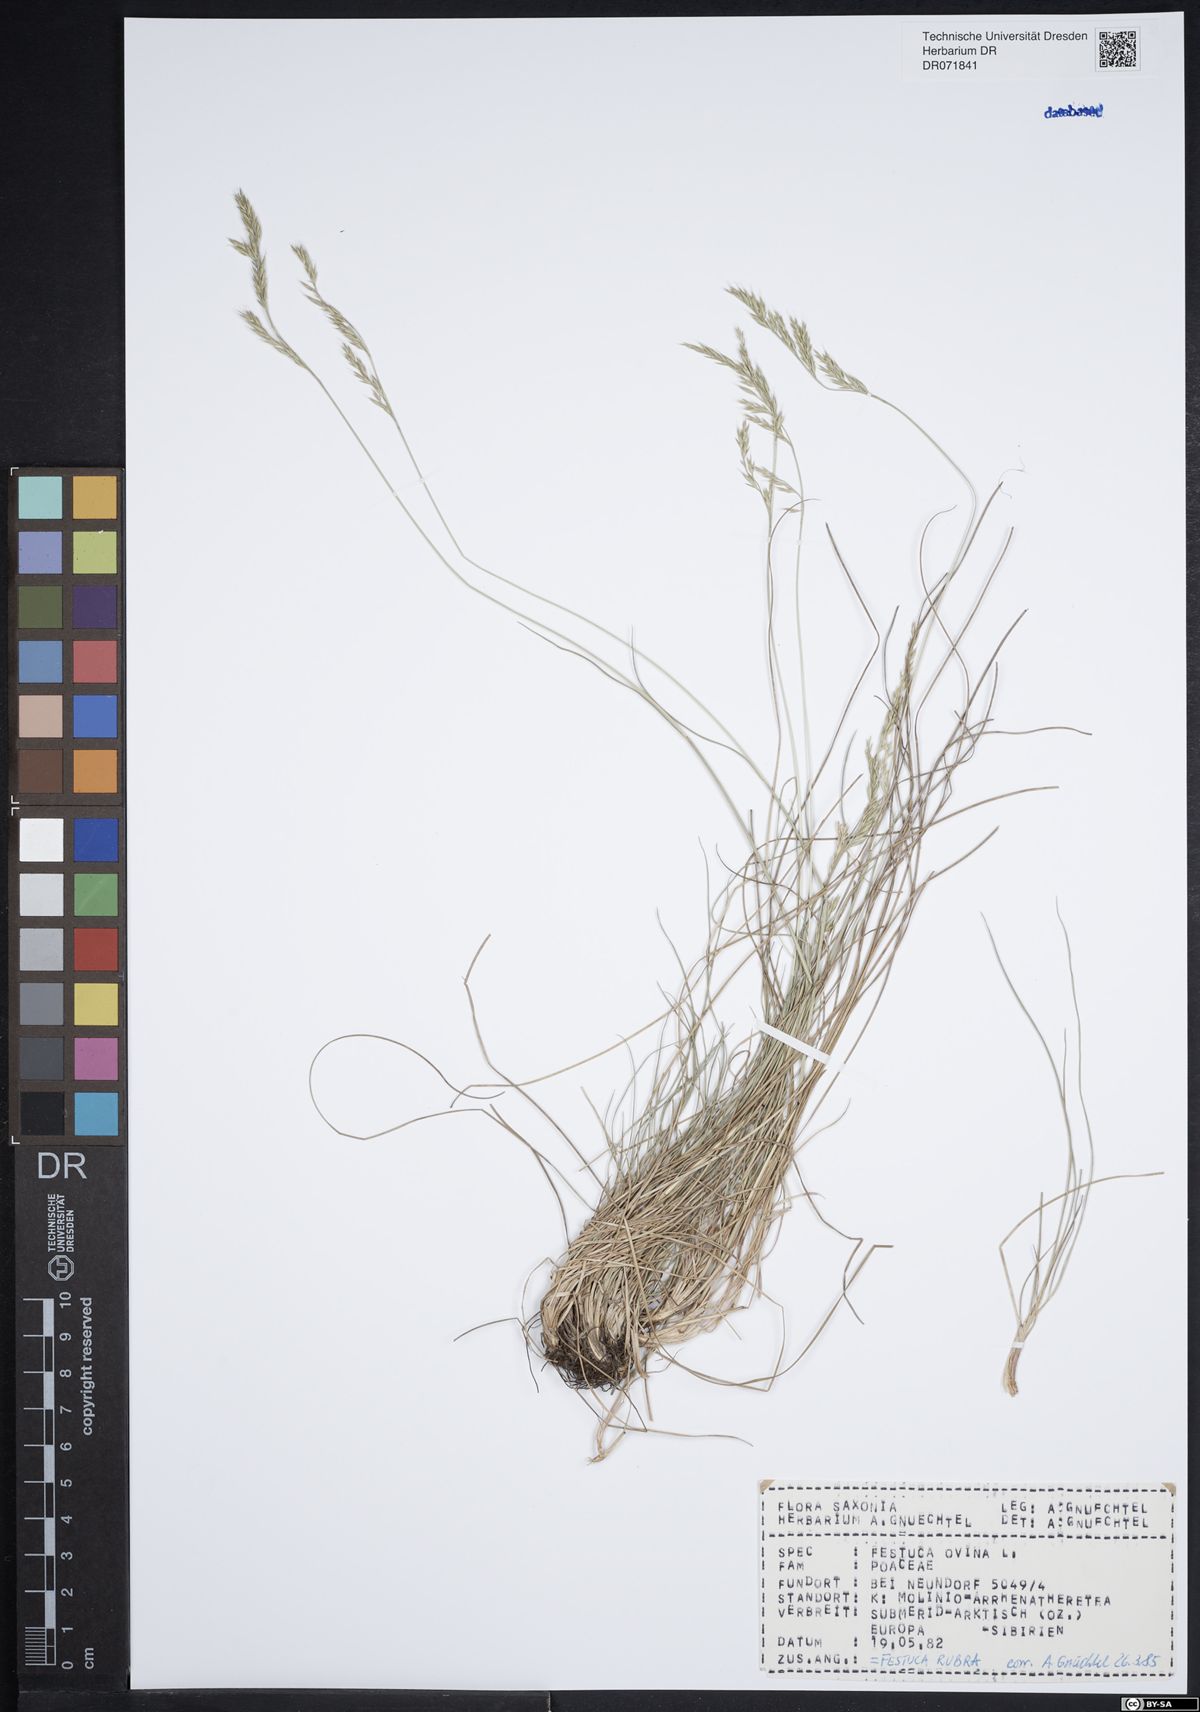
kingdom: Plantae
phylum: Tracheophyta
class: Liliopsida
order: Poales
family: Poaceae
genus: Festuca
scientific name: Festuca rubra
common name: Red fescue
